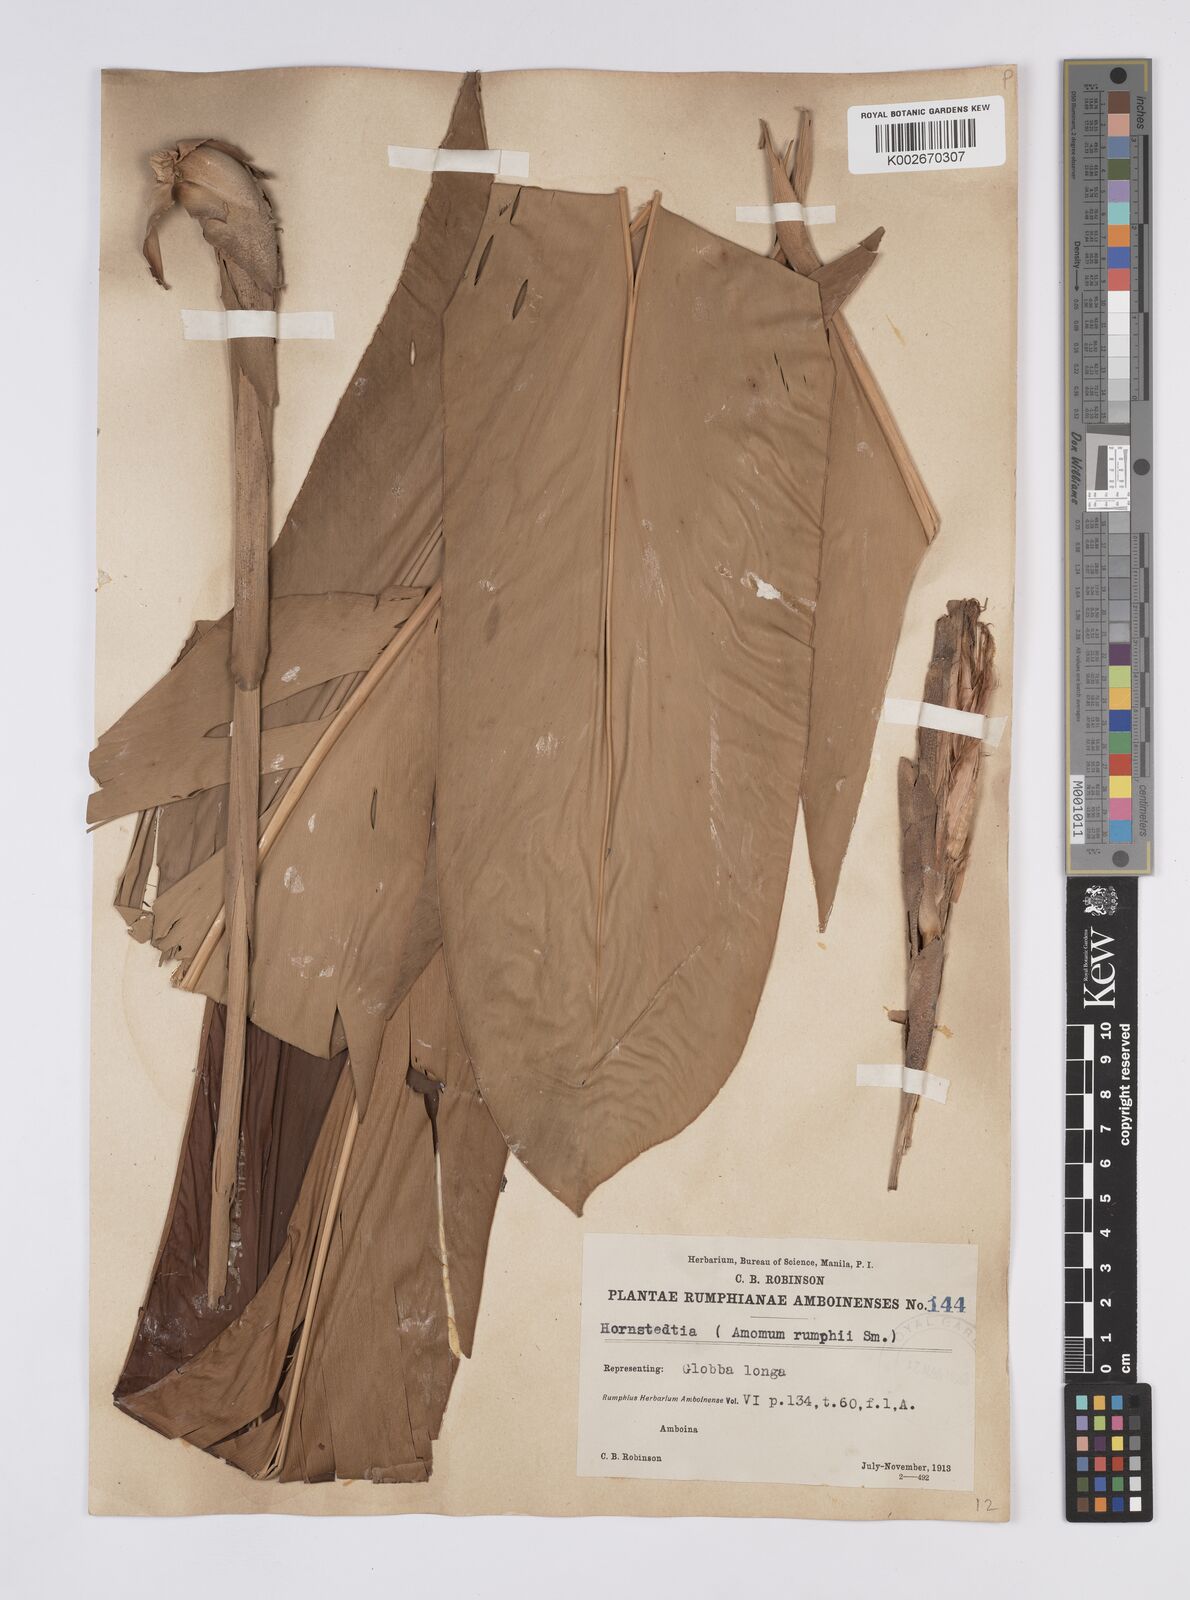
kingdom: Plantae
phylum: Tracheophyta
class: Liliopsida
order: Zingiberales
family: Zingiberaceae
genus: Hornstedtia
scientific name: Hornstedtia
